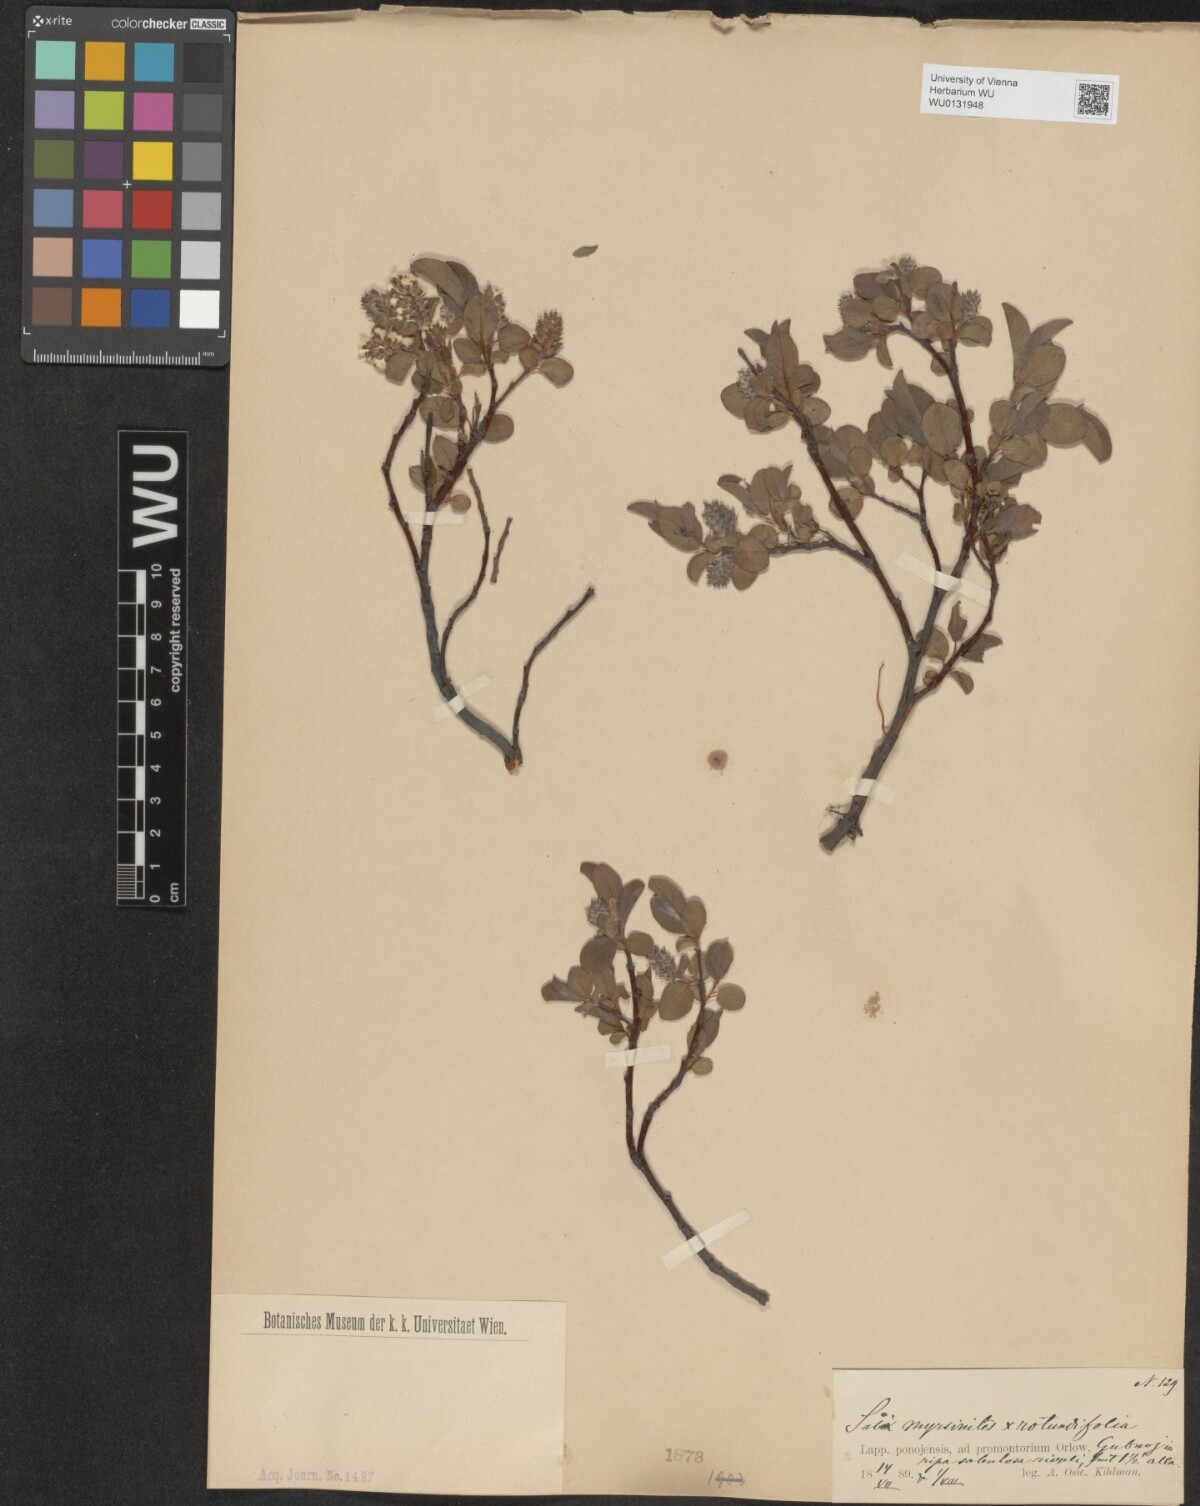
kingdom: Plantae
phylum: Tracheophyta
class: Magnoliopsida
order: Malpighiales
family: Salicaceae
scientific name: Salicaceae
